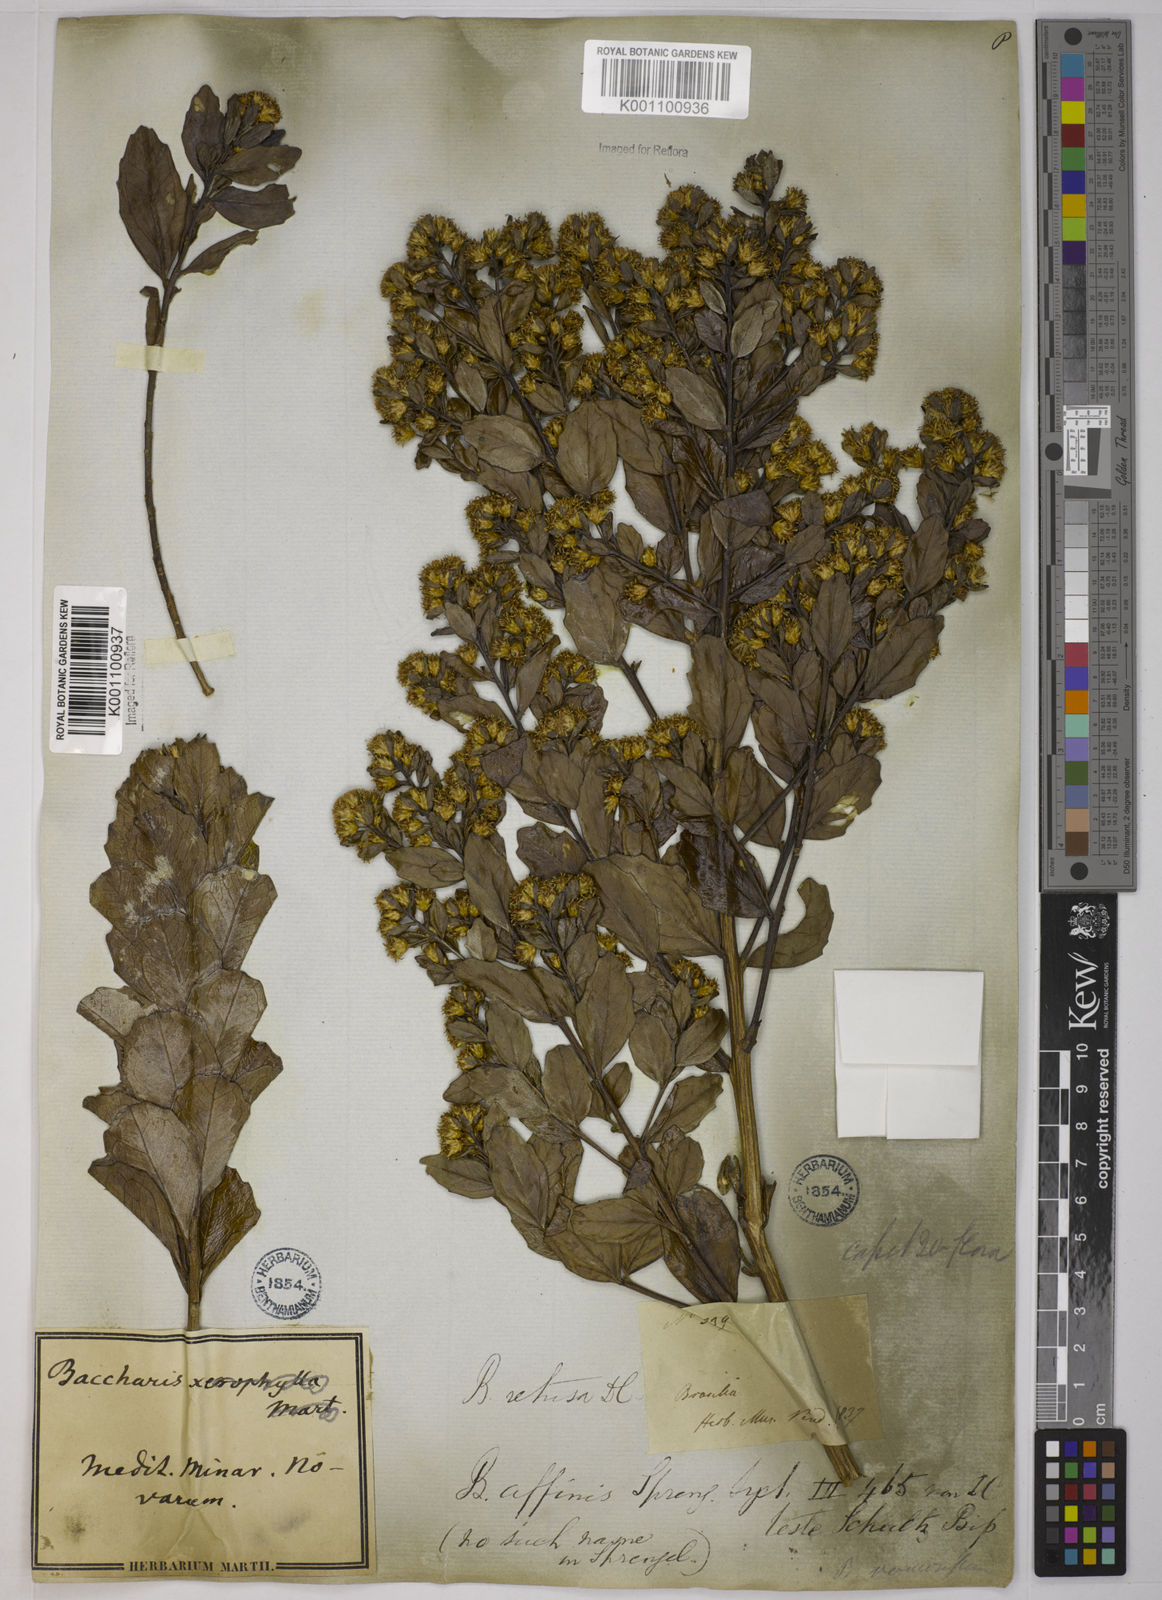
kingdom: Plantae
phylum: Tracheophyta
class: Magnoliopsida
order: Asterales
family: Asteraceae
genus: Baccharis
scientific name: Baccharis retusa
